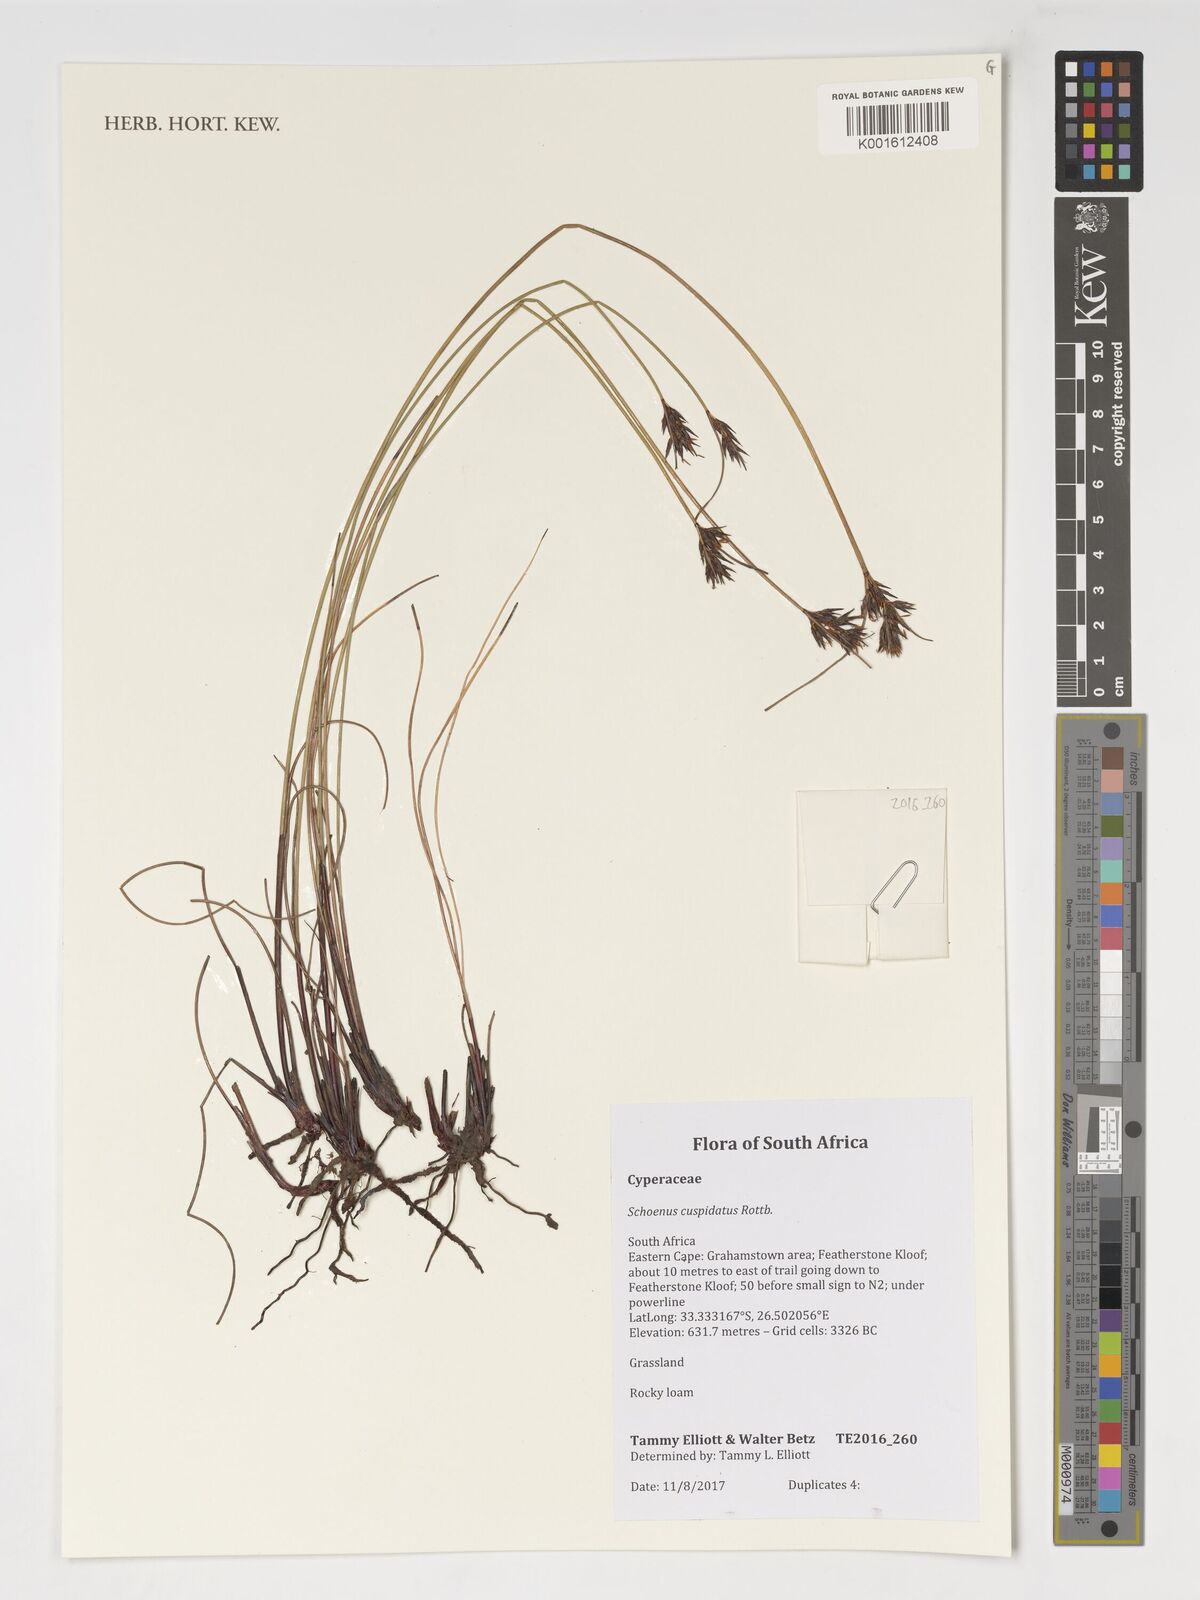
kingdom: Plantae
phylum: Tracheophyta
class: Liliopsida
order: Poales
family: Cyperaceae
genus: Schoenus
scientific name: Schoenus cuspidatus
